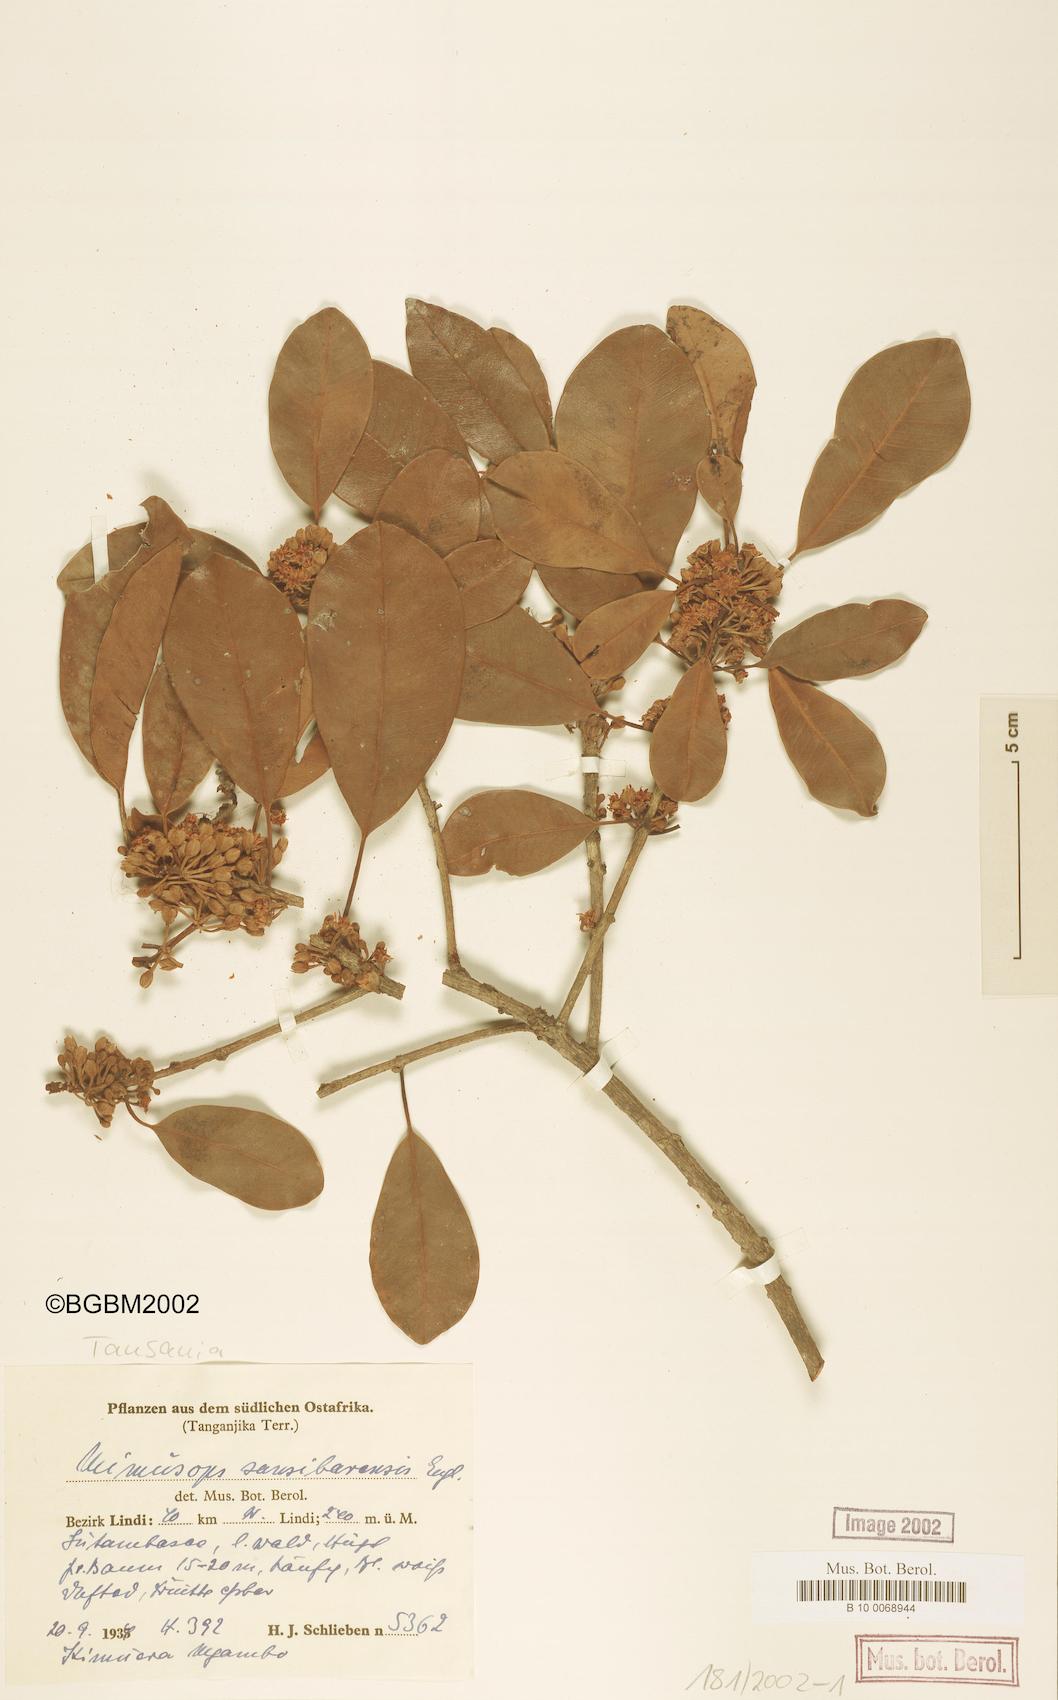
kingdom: Plantae
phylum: Tracheophyta
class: Magnoliopsida
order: Ericales
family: Sapotaceae
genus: Manilkara
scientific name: Manilkara sansibarensis
